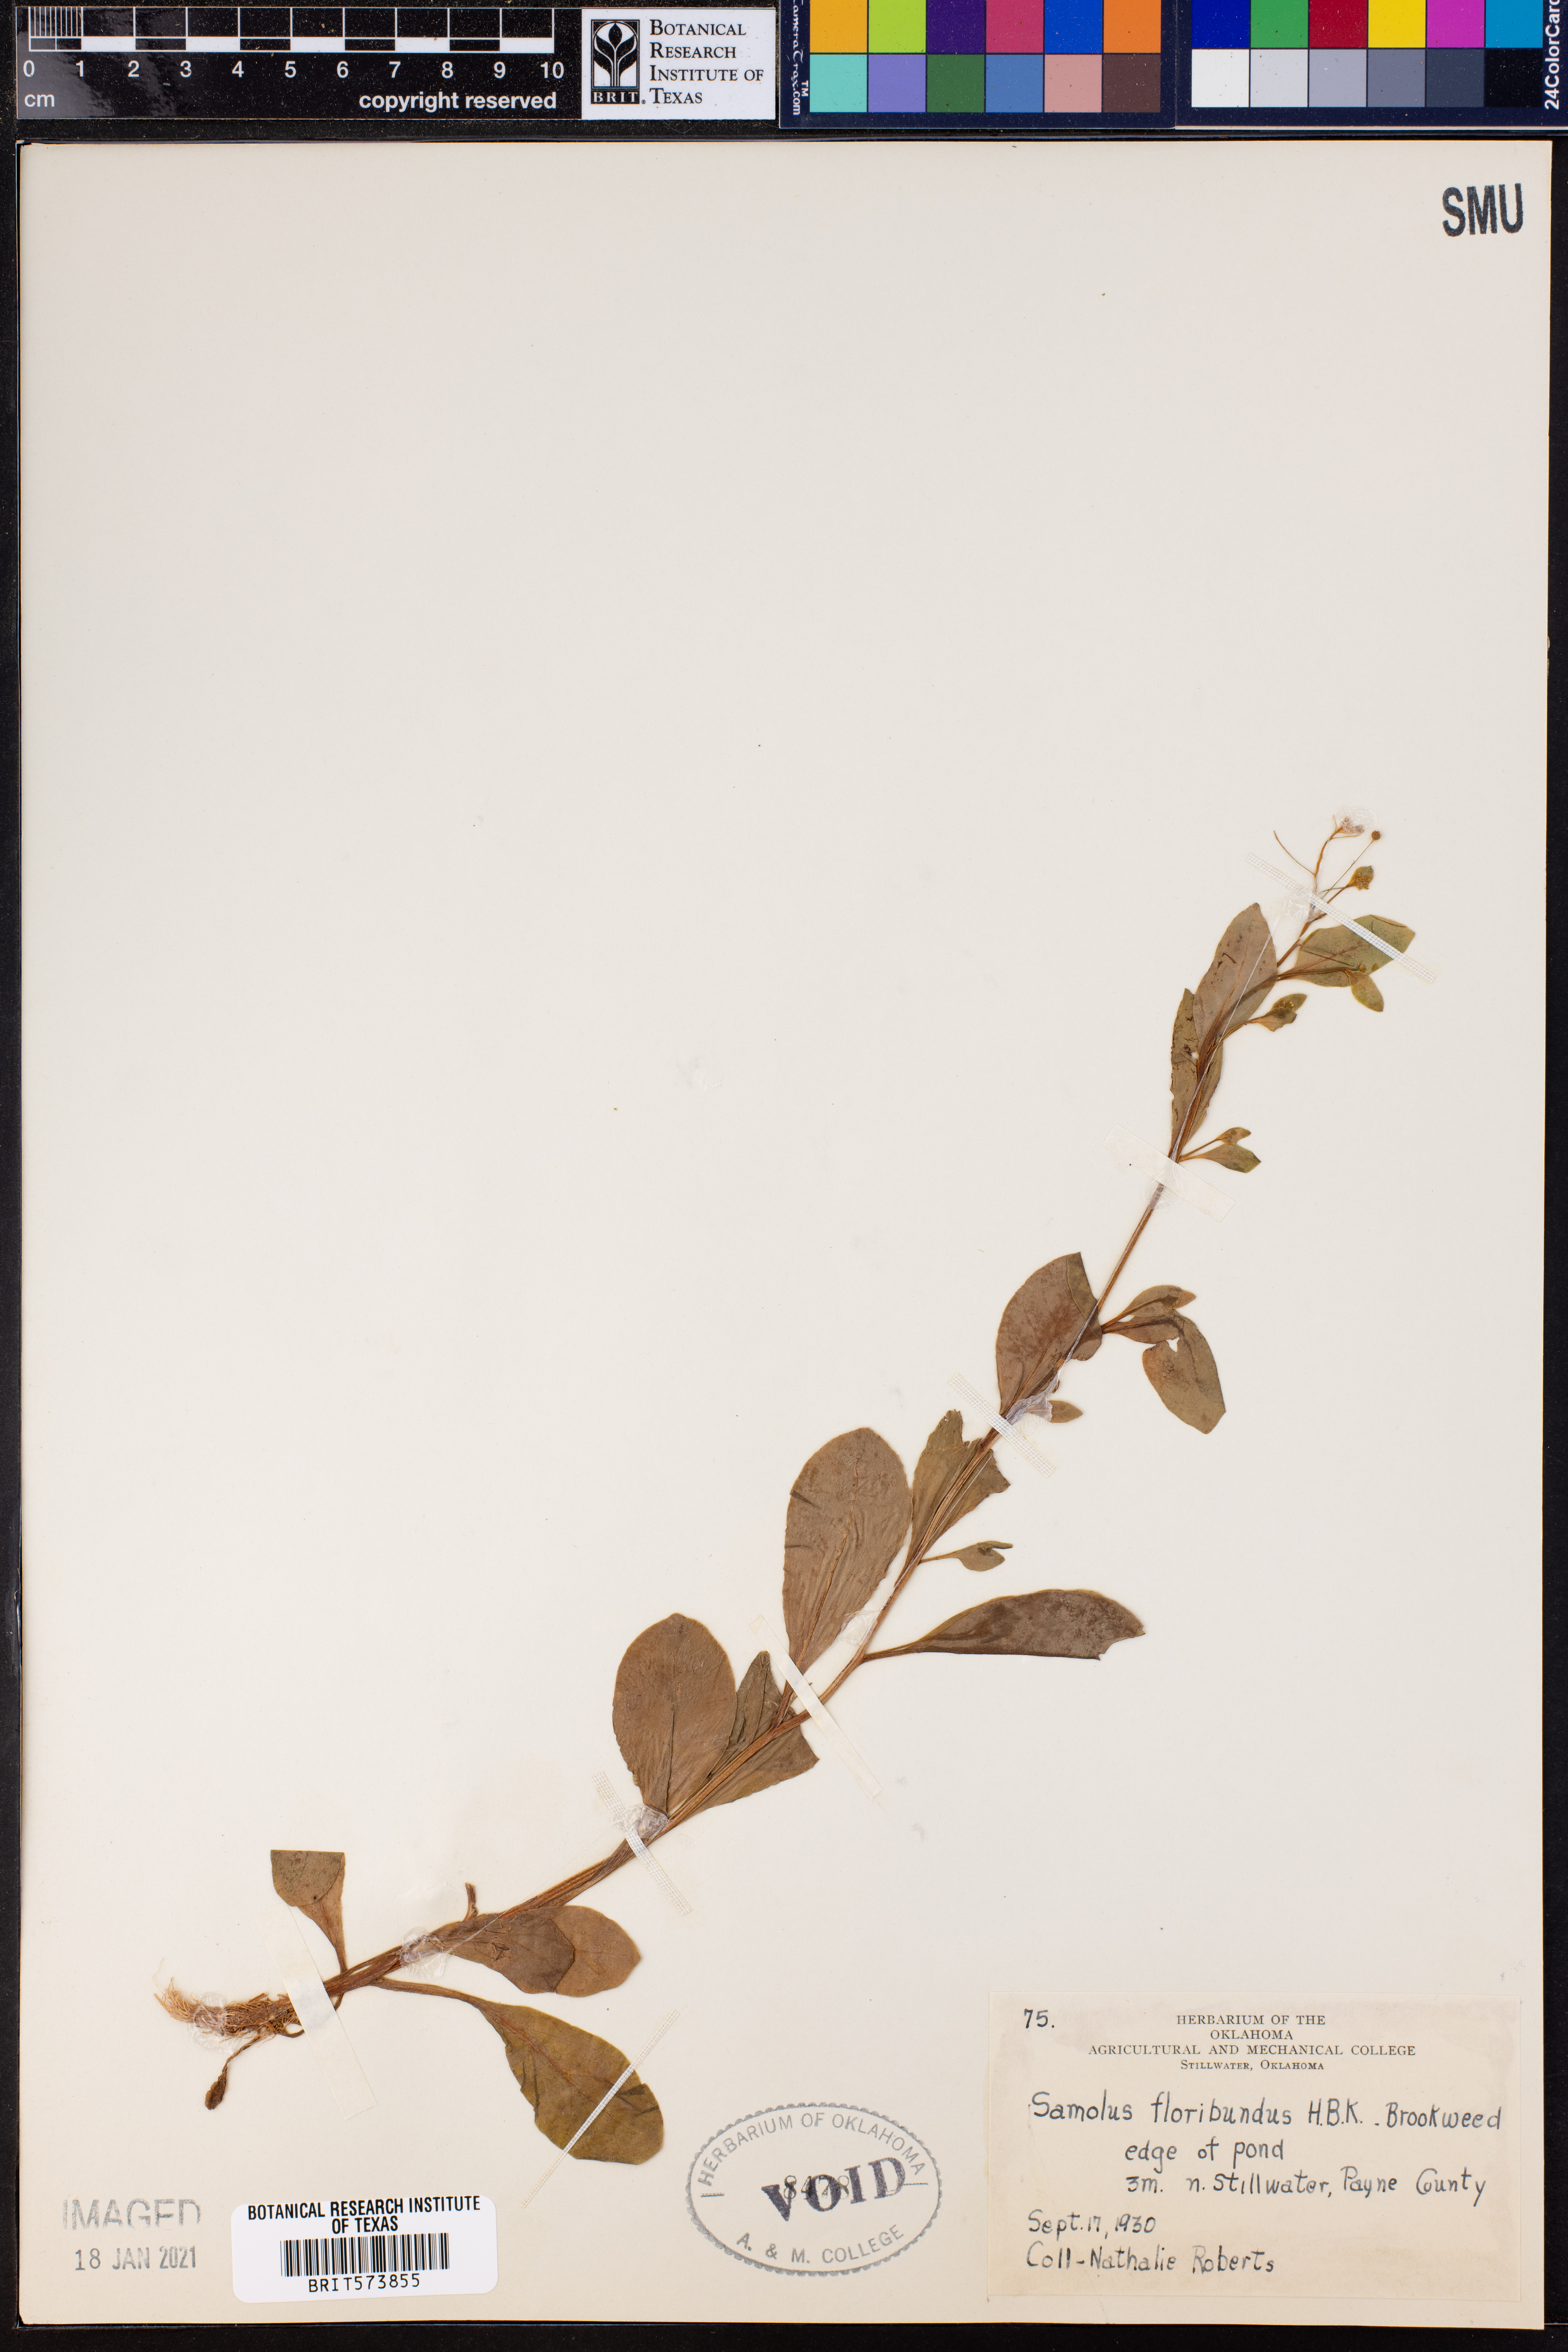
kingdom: Plantae
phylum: Tracheophyta
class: Magnoliopsida
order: Ericales
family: Primulaceae
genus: Samolus
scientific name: Samolus parviflorus
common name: False water pimpernel
